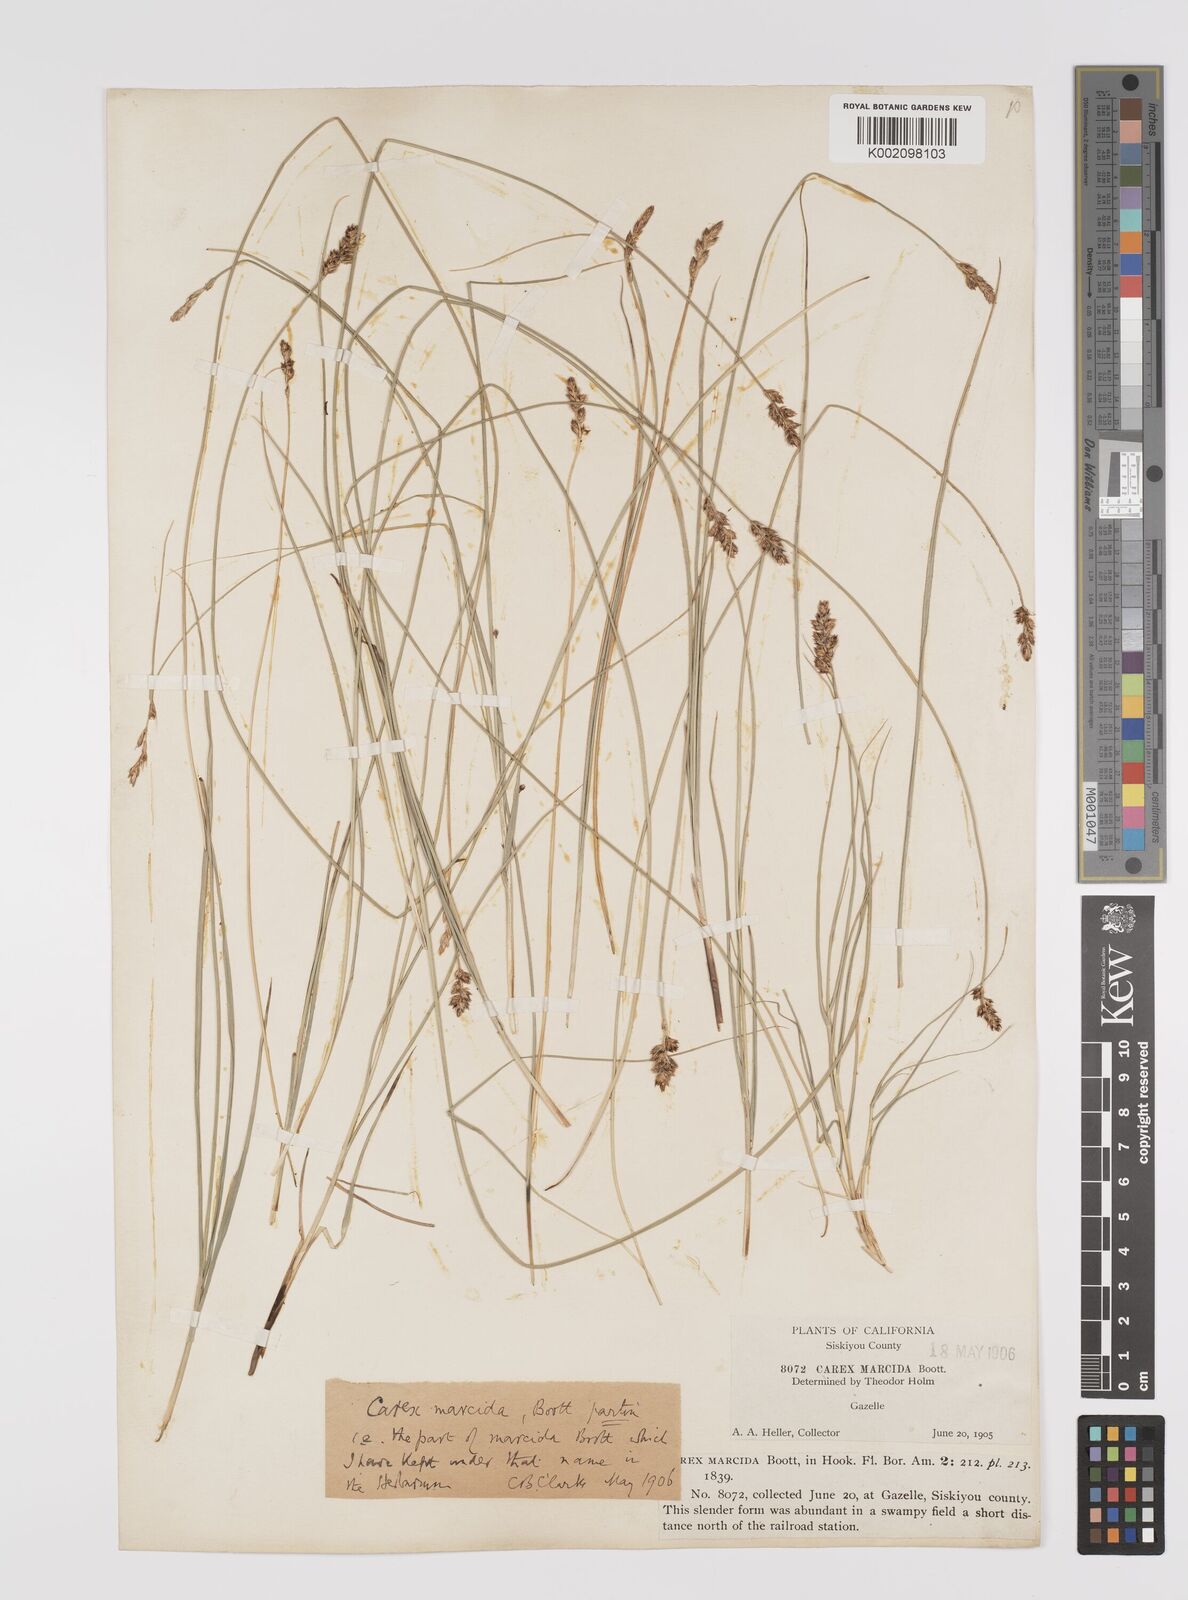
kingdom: Plantae
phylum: Tracheophyta
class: Liliopsida
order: Poales
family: Cyperaceae
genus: Carex
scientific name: Carex praegracilis
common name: Black creeper sedge
